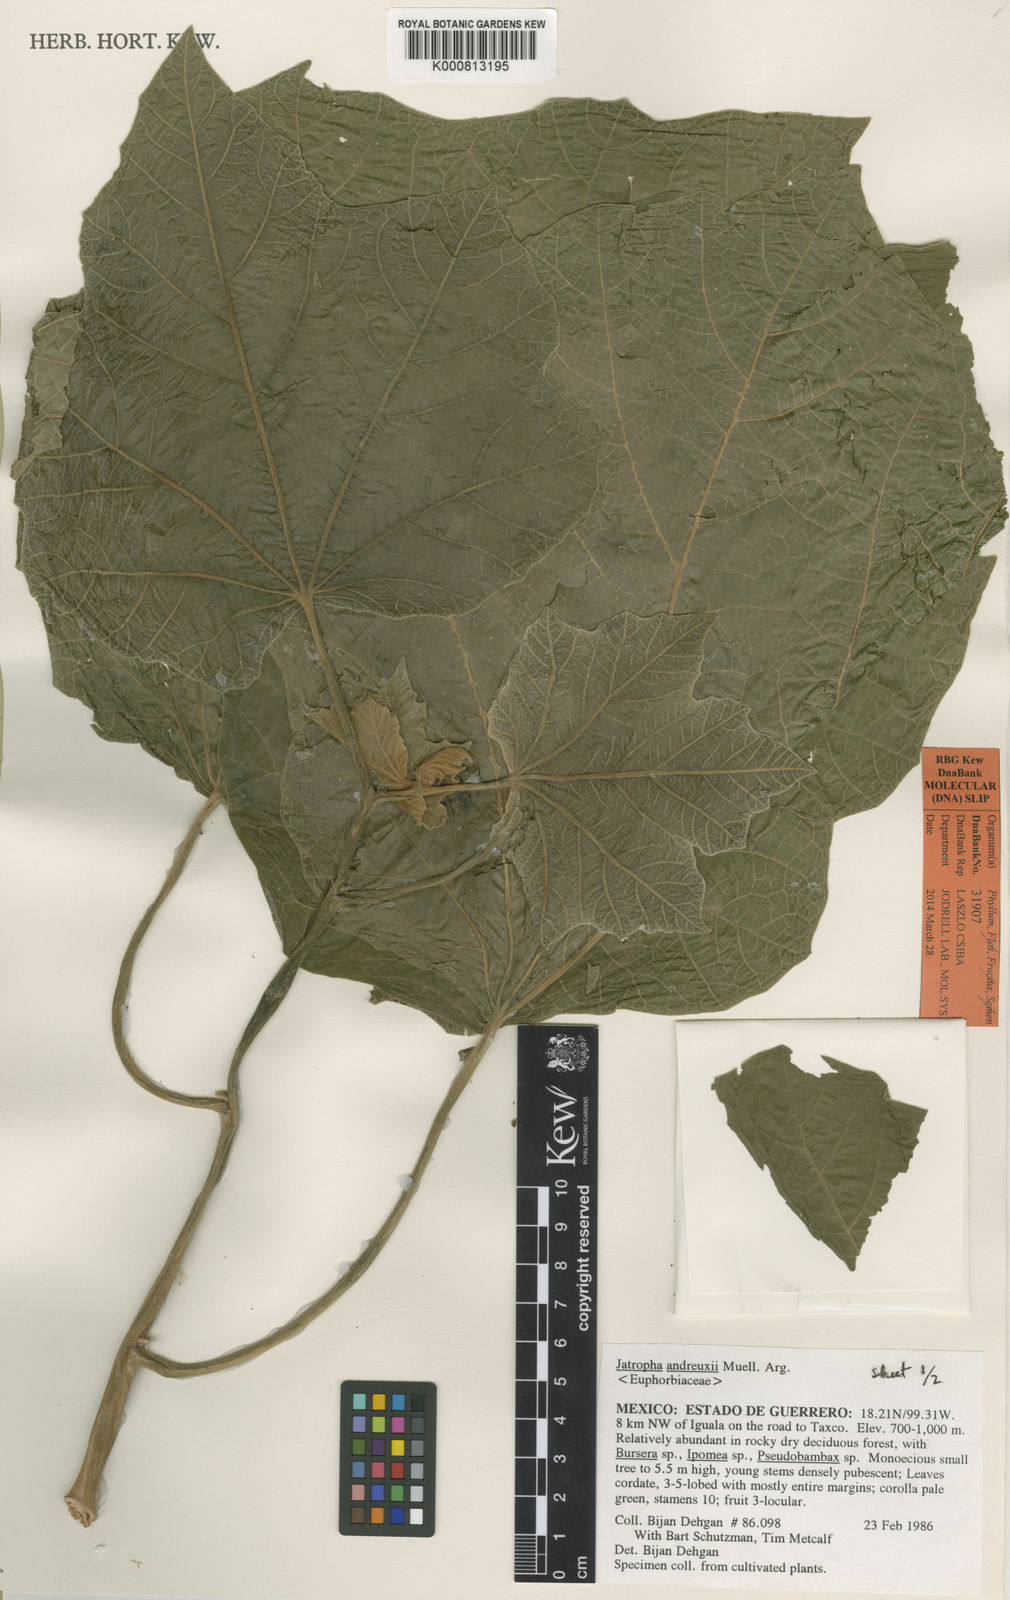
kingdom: Plantae
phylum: Tracheophyta
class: Magnoliopsida
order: Malpighiales
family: Euphorbiaceae
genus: Jatropha
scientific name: Jatropha
